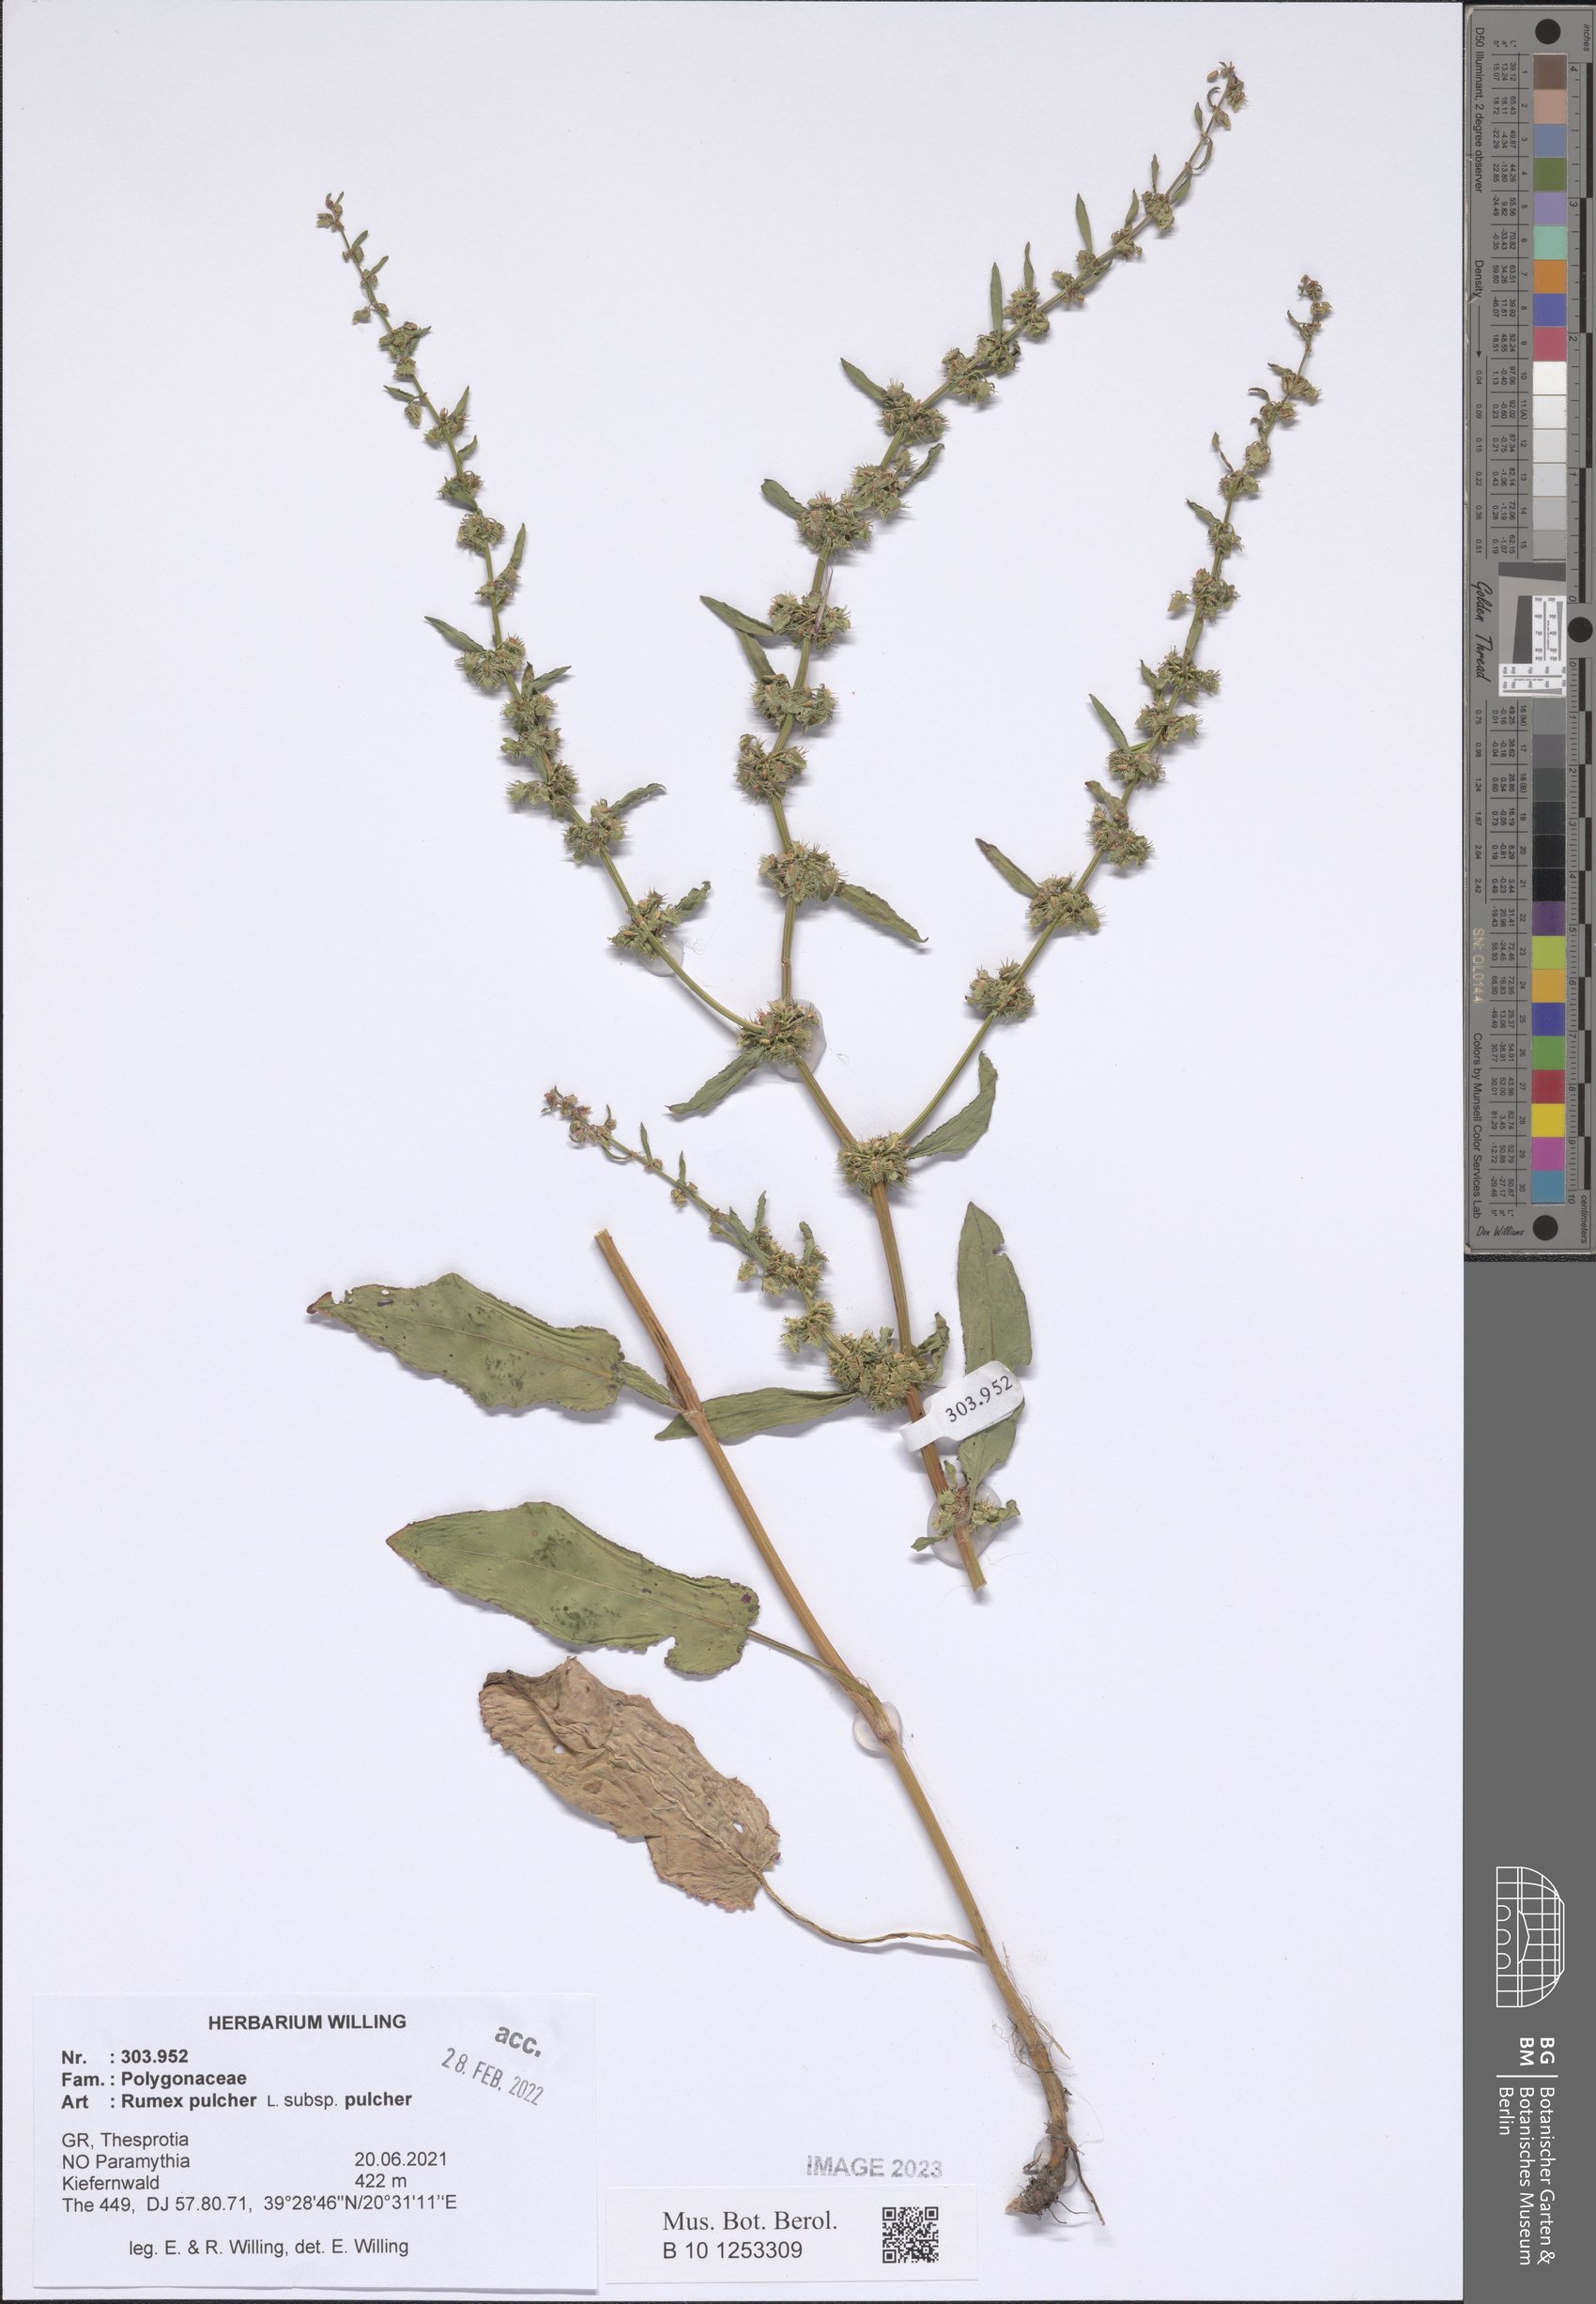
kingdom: Plantae
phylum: Tracheophyta
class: Magnoliopsida
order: Caryophyllales
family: Polygonaceae
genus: Rumex
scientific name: Rumex pulcher
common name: Fiddle dock
